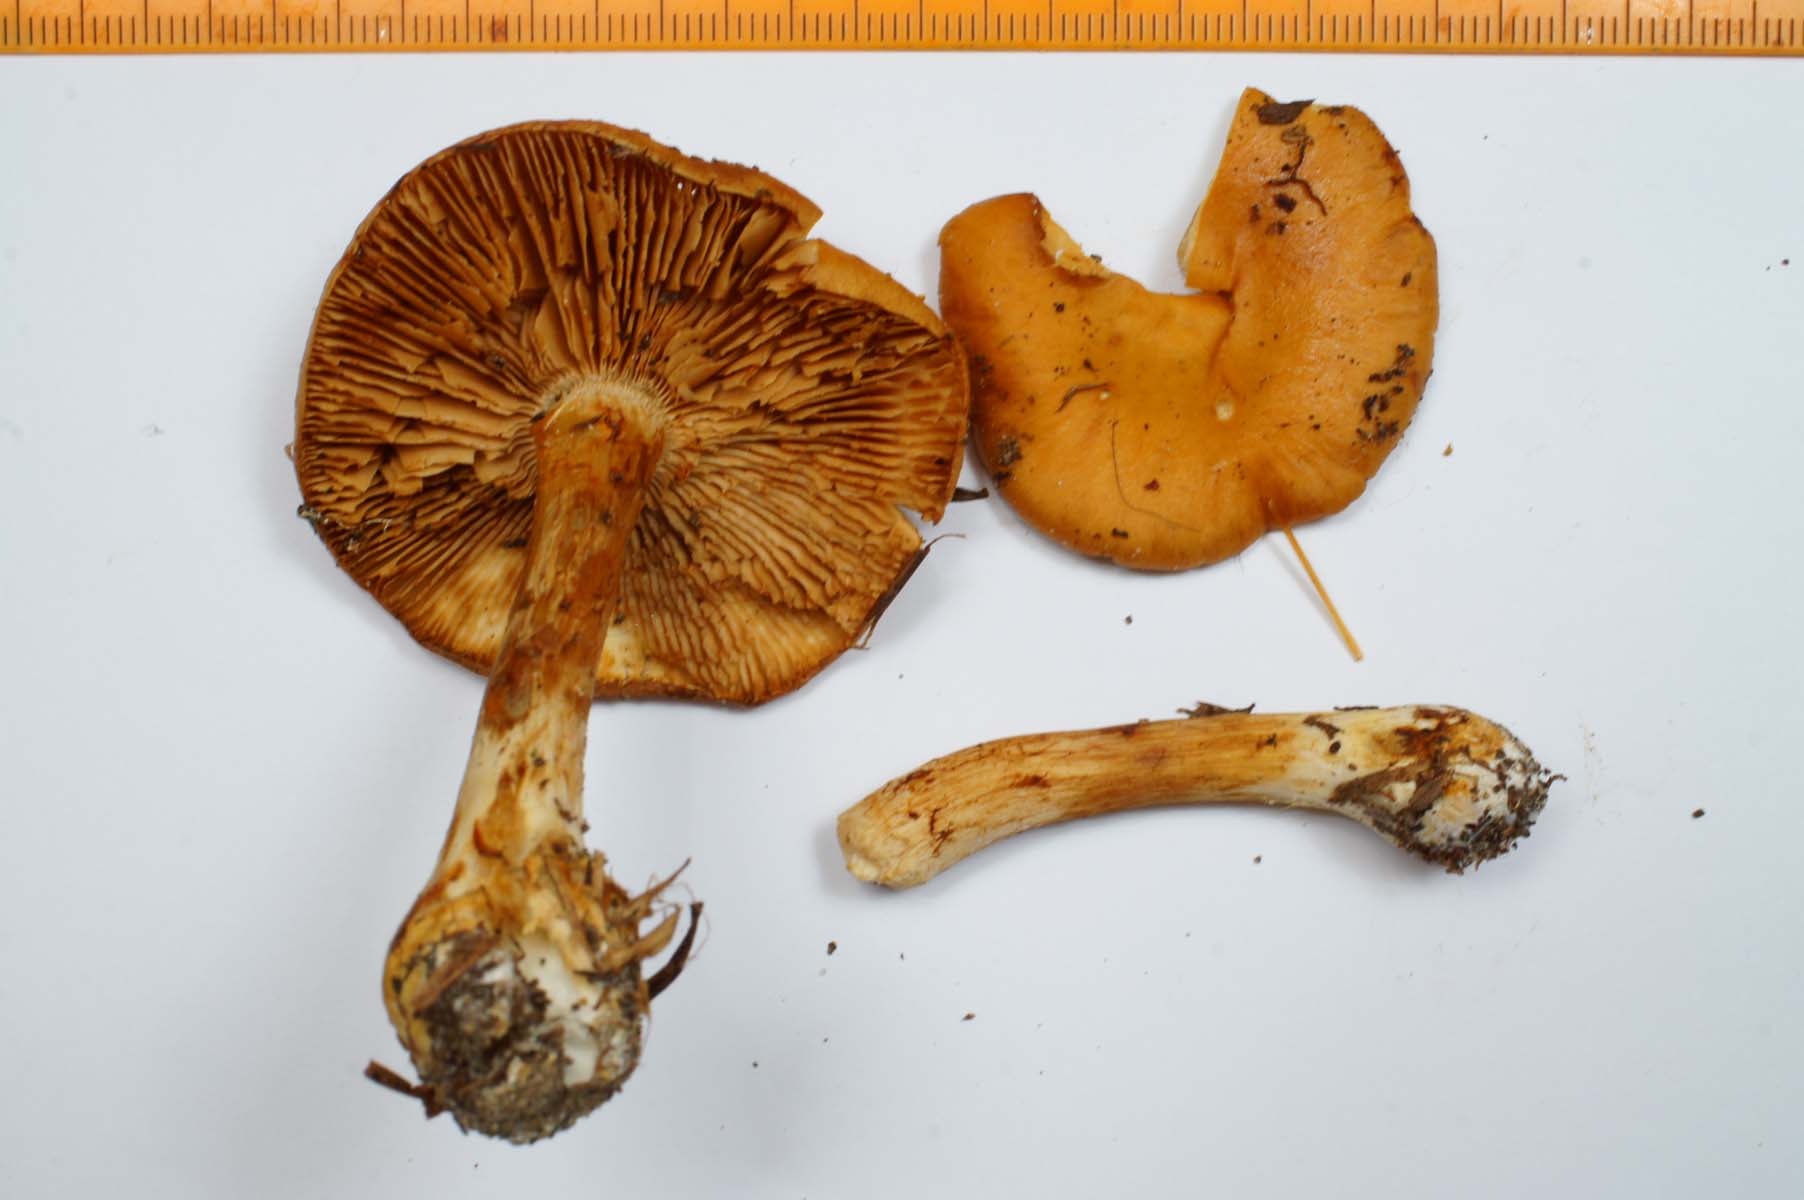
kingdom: Fungi
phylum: Basidiomycota
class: Agaricomycetes
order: Agaricales
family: Cortinariaceae
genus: Thaxterogaster
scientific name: Thaxterogaster multiformis
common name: honning-slørhat
